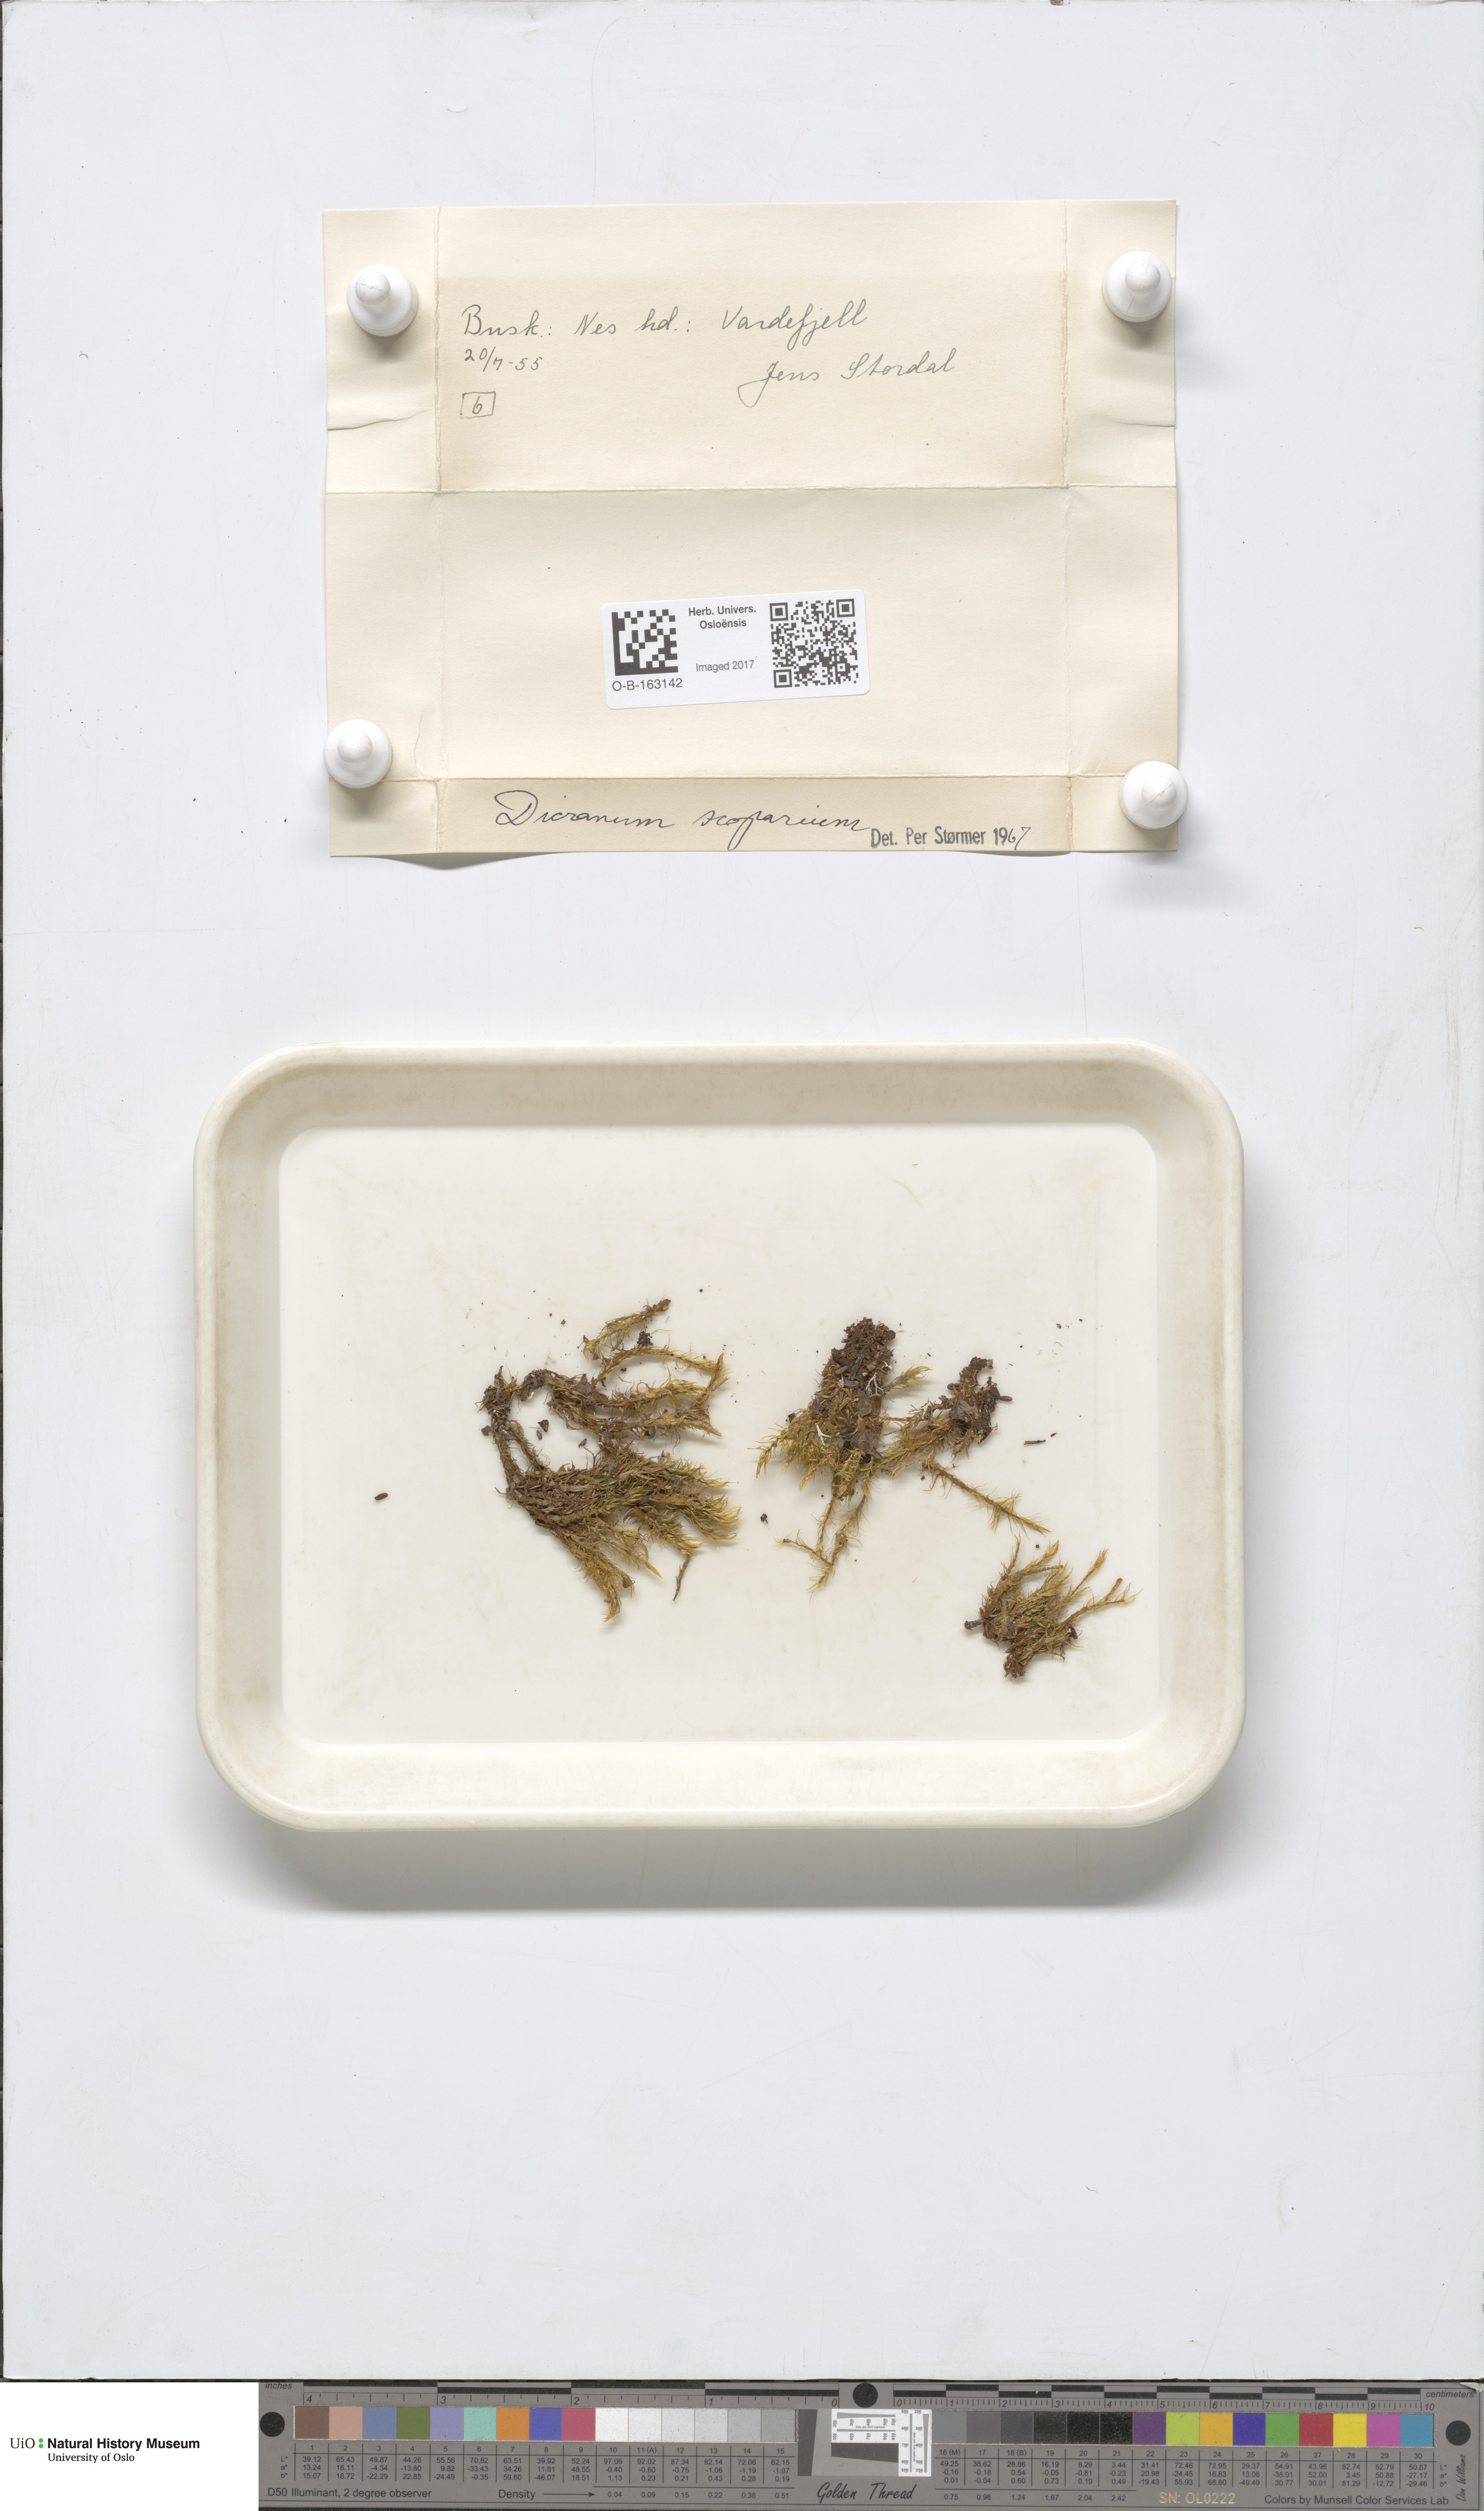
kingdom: Plantae
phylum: Bryophyta
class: Bryopsida
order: Dicranales
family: Dicranaceae
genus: Dicranum
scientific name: Dicranum scoparium
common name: Broom fork-moss
